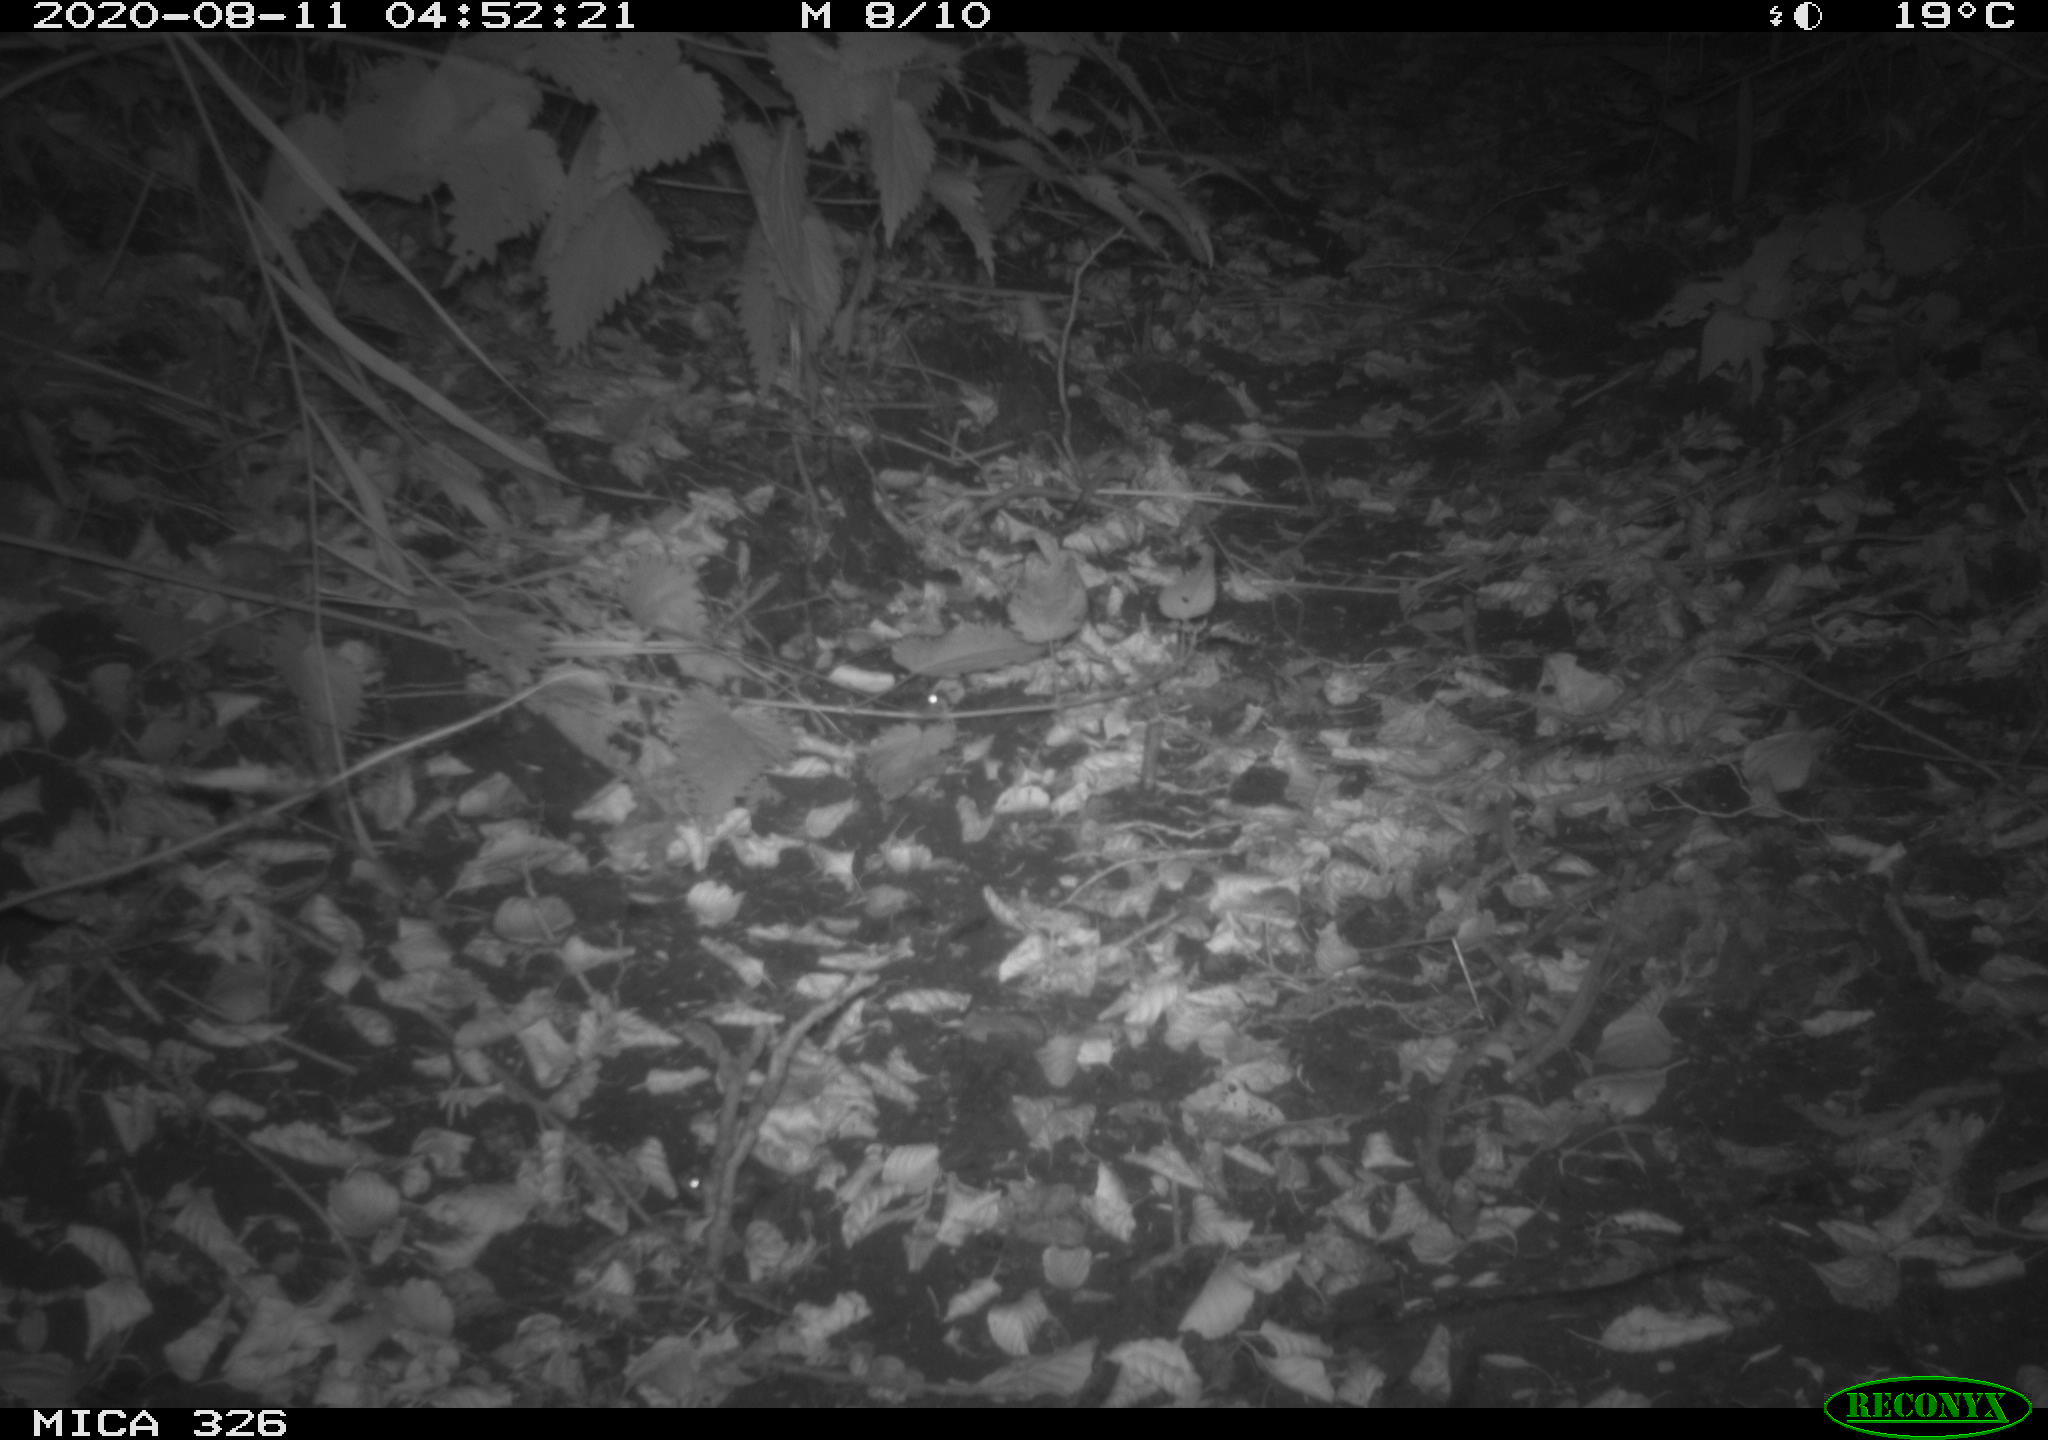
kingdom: Animalia
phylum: Chordata
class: Mammalia
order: Rodentia
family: Muridae
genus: Rattus
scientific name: Rattus norvegicus
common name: Brown rat
